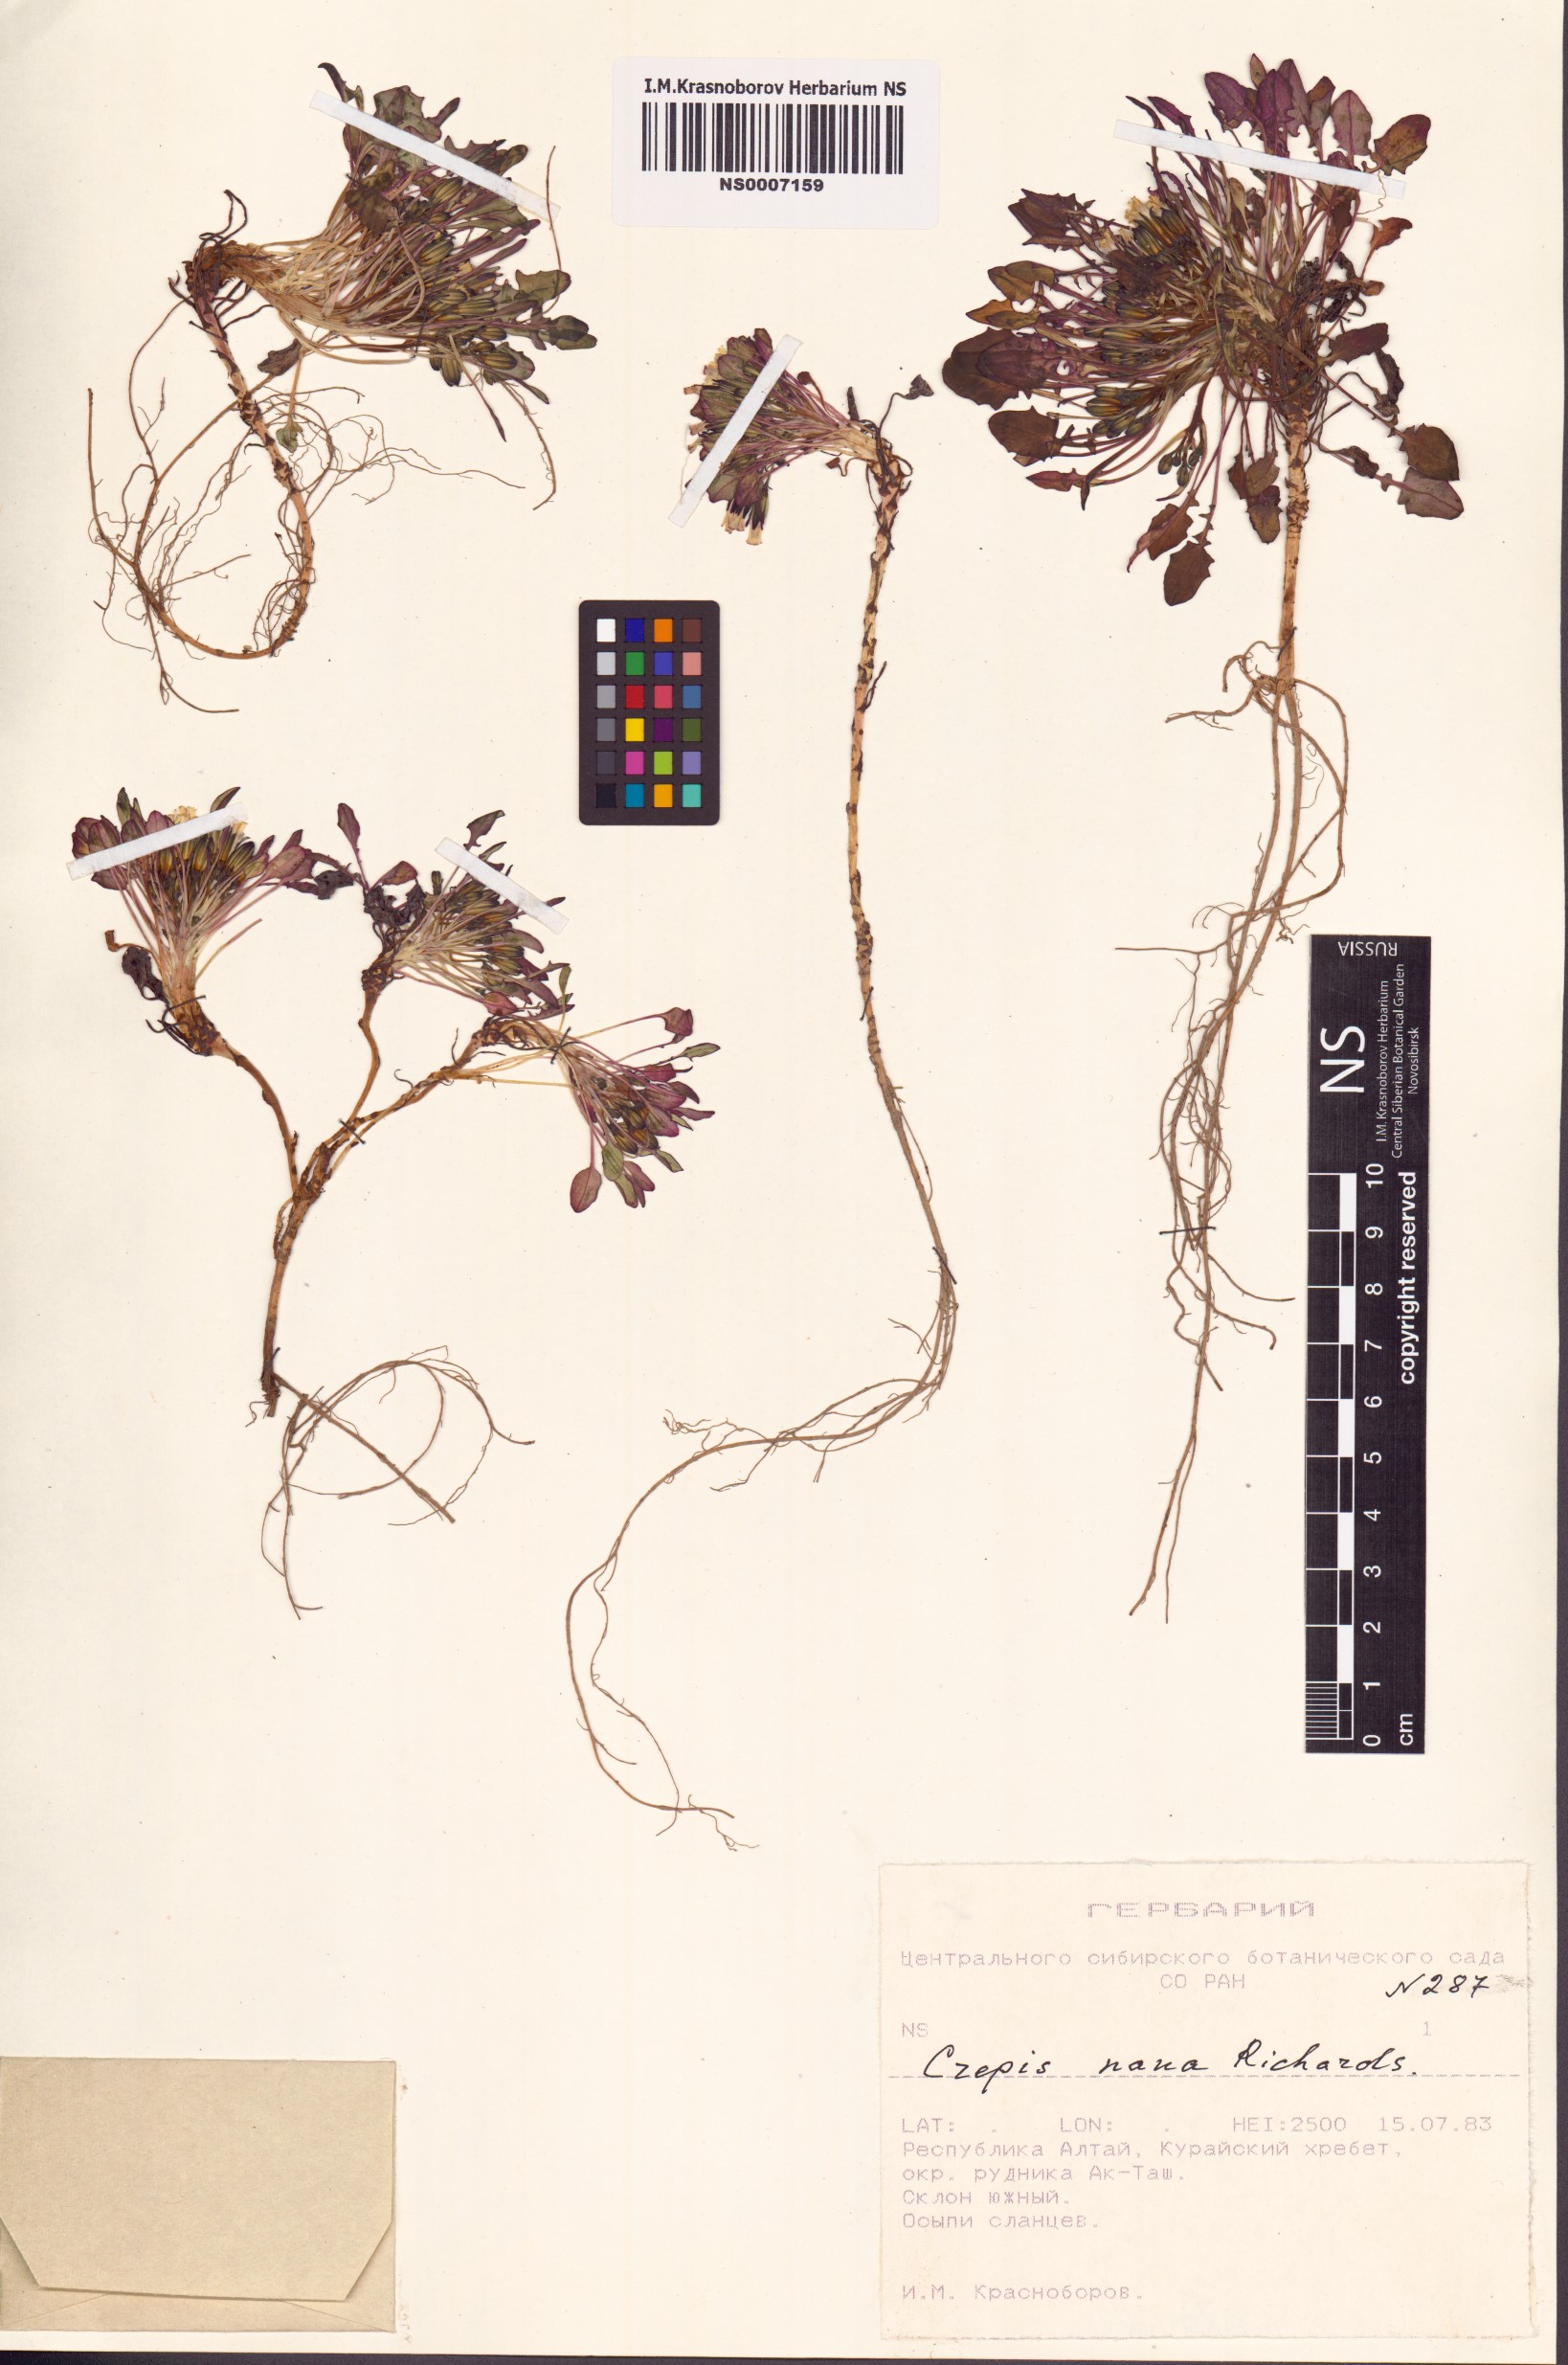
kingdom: Plantae
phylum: Tracheophyta
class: Magnoliopsida
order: Asterales
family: Asteraceae
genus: Askellia
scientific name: Askellia pygmaea
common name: Dwarf alpine hawksbeard
